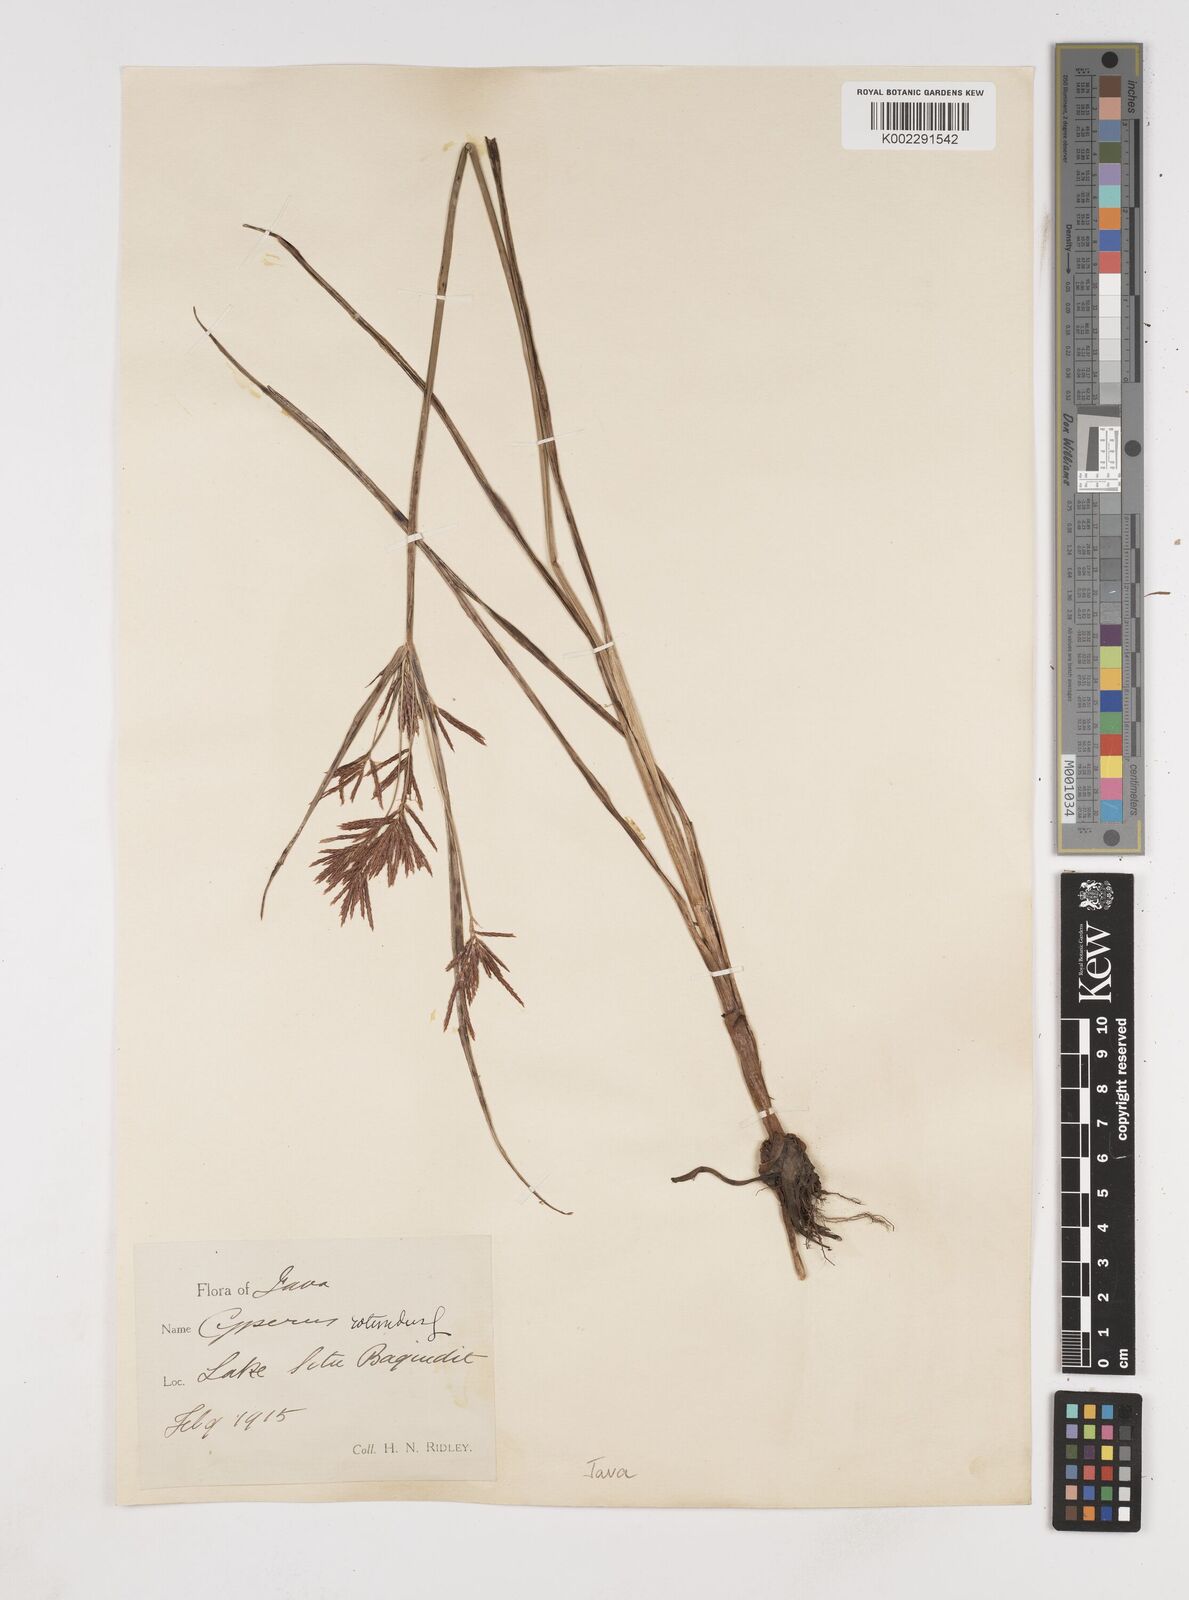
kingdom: Plantae
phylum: Tracheophyta
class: Liliopsida
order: Poales
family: Cyperaceae
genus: Cyperus
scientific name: Cyperus rotundus
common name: Nutgrass
